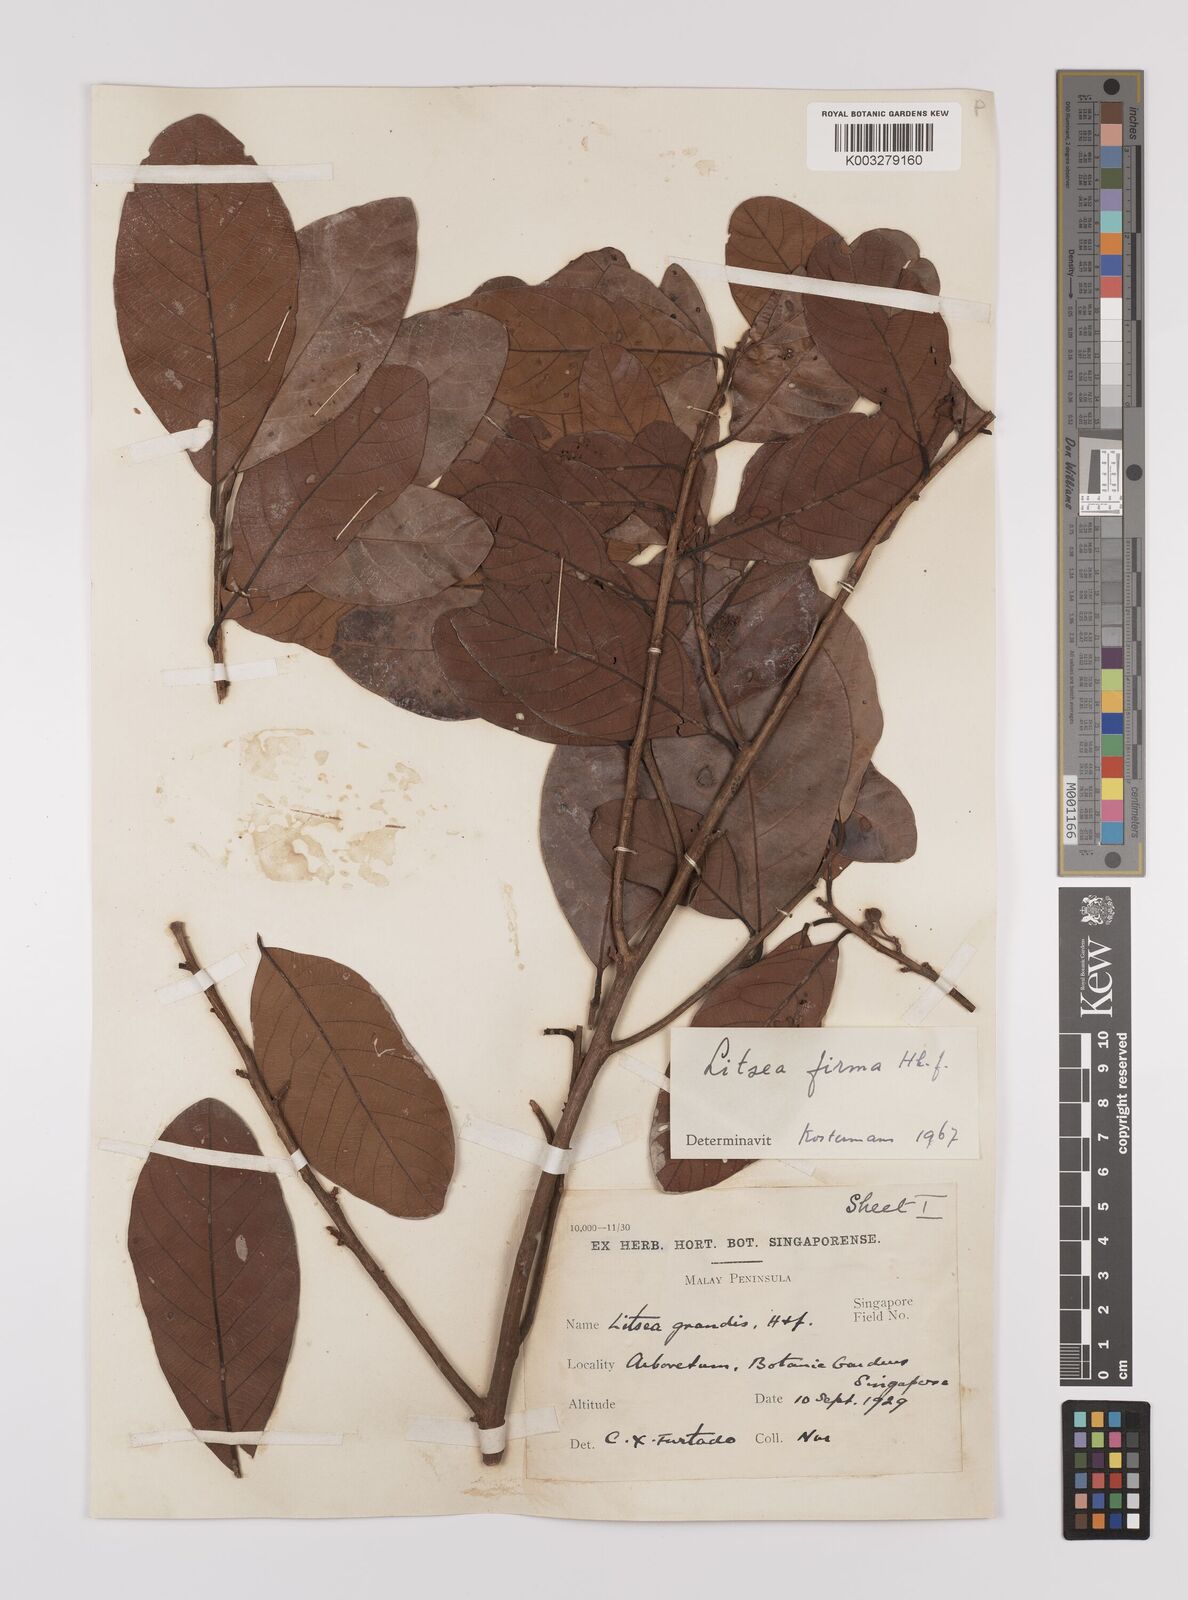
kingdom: Plantae
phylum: Tracheophyta
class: Magnoliopsida
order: Laurales
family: Lauraceae
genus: Litsea
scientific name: Litsea firma
